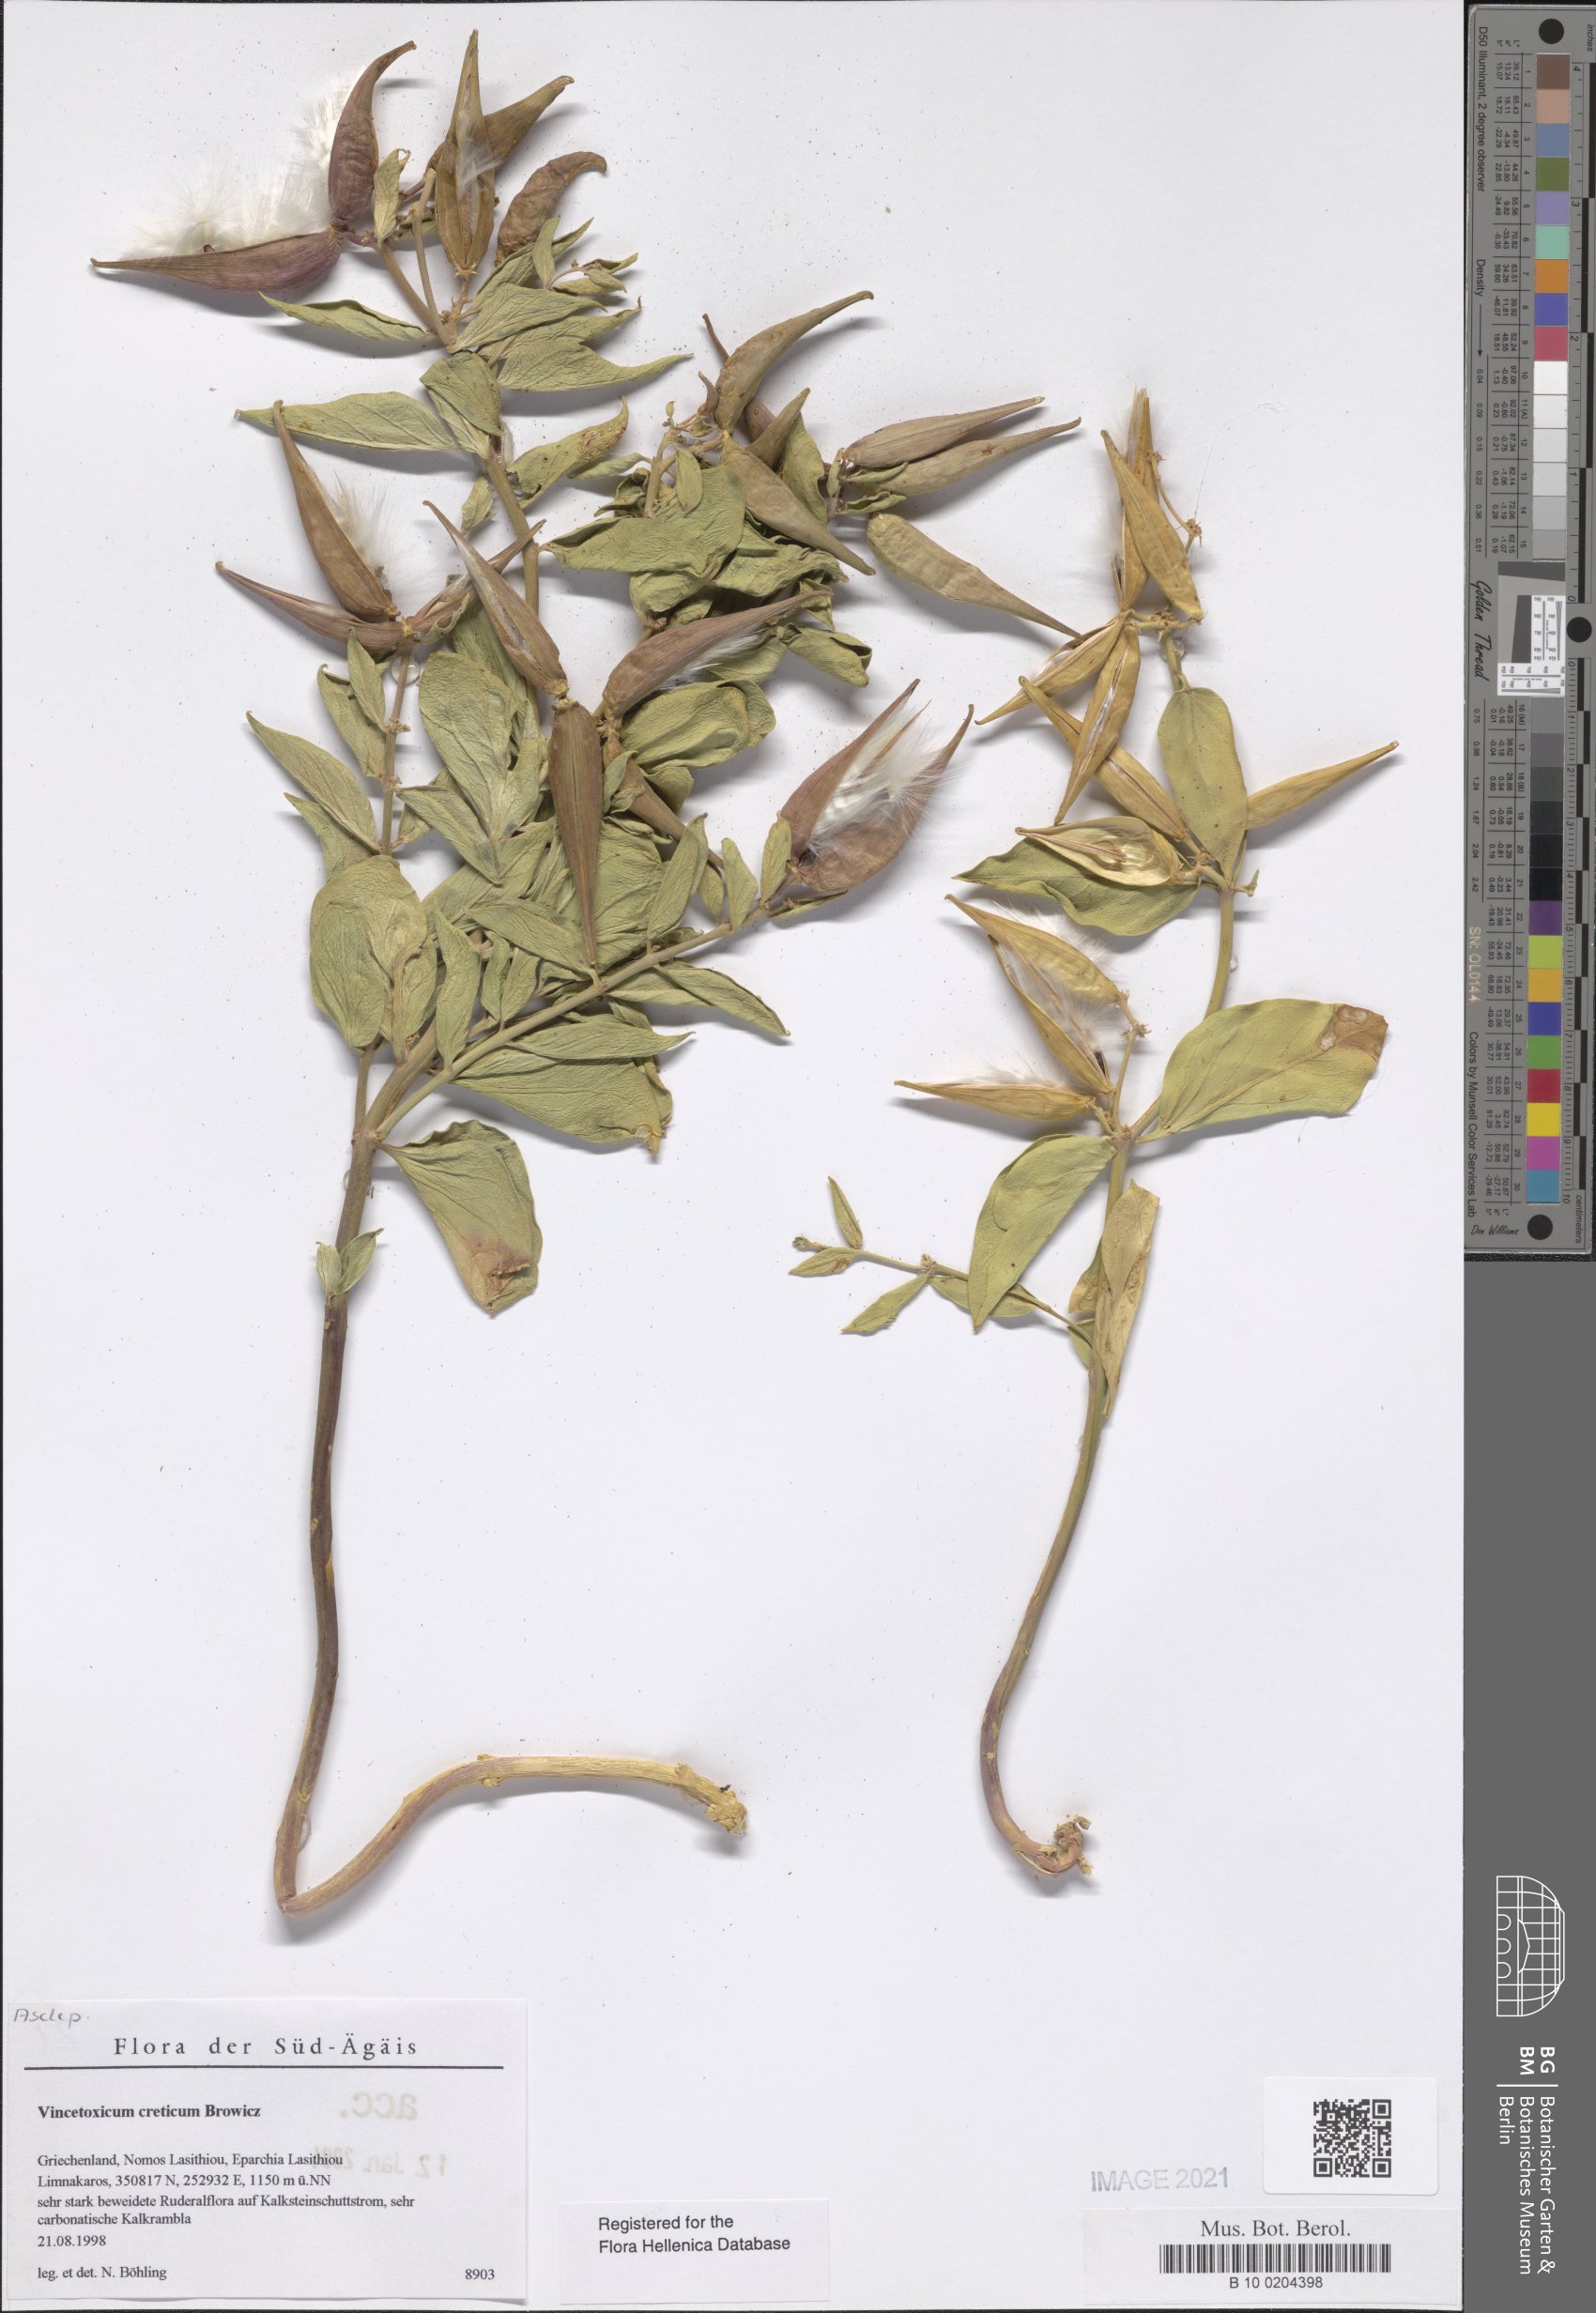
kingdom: Plantae
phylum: Tracheophyta
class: Magnoliopsida
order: Gentianales
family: Apocynaceae
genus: Vincetoxicum
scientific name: Vincetoxicum creticum
